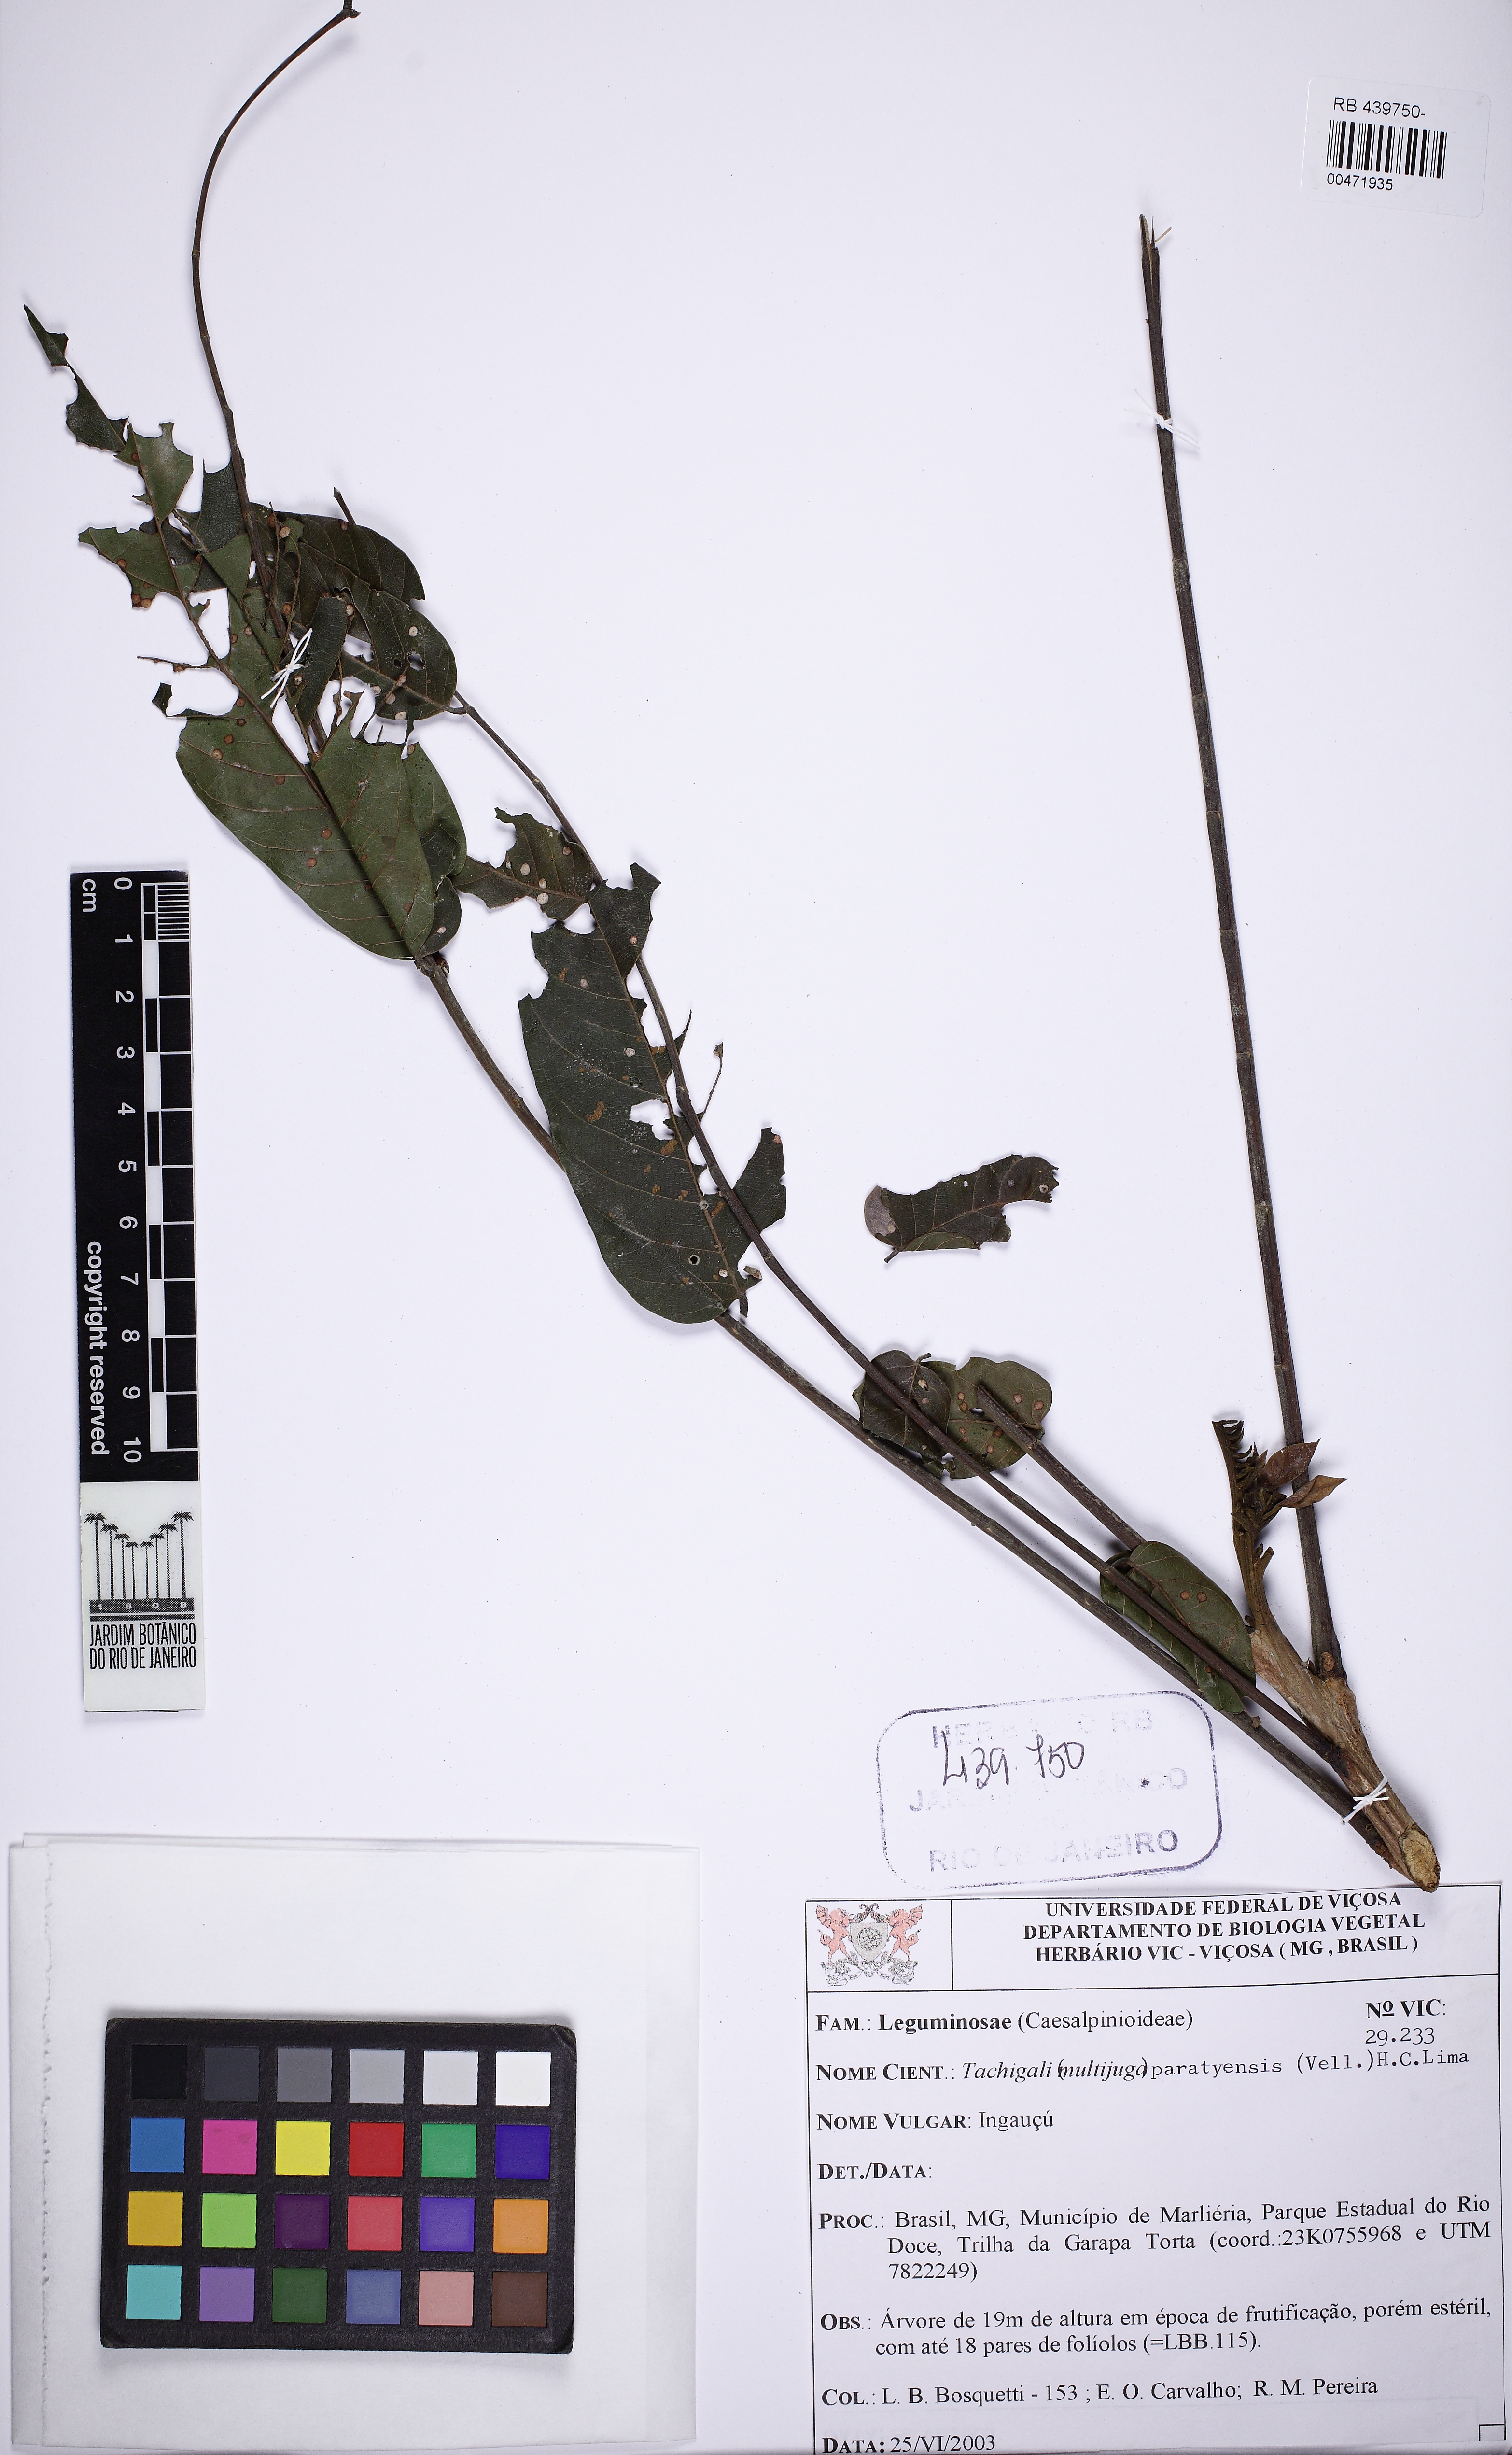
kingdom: Plantae
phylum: Tracheophyta
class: Magnoliopsida
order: Fabales
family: Fabaceae
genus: Tachigali
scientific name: Tachigali paratyensis
